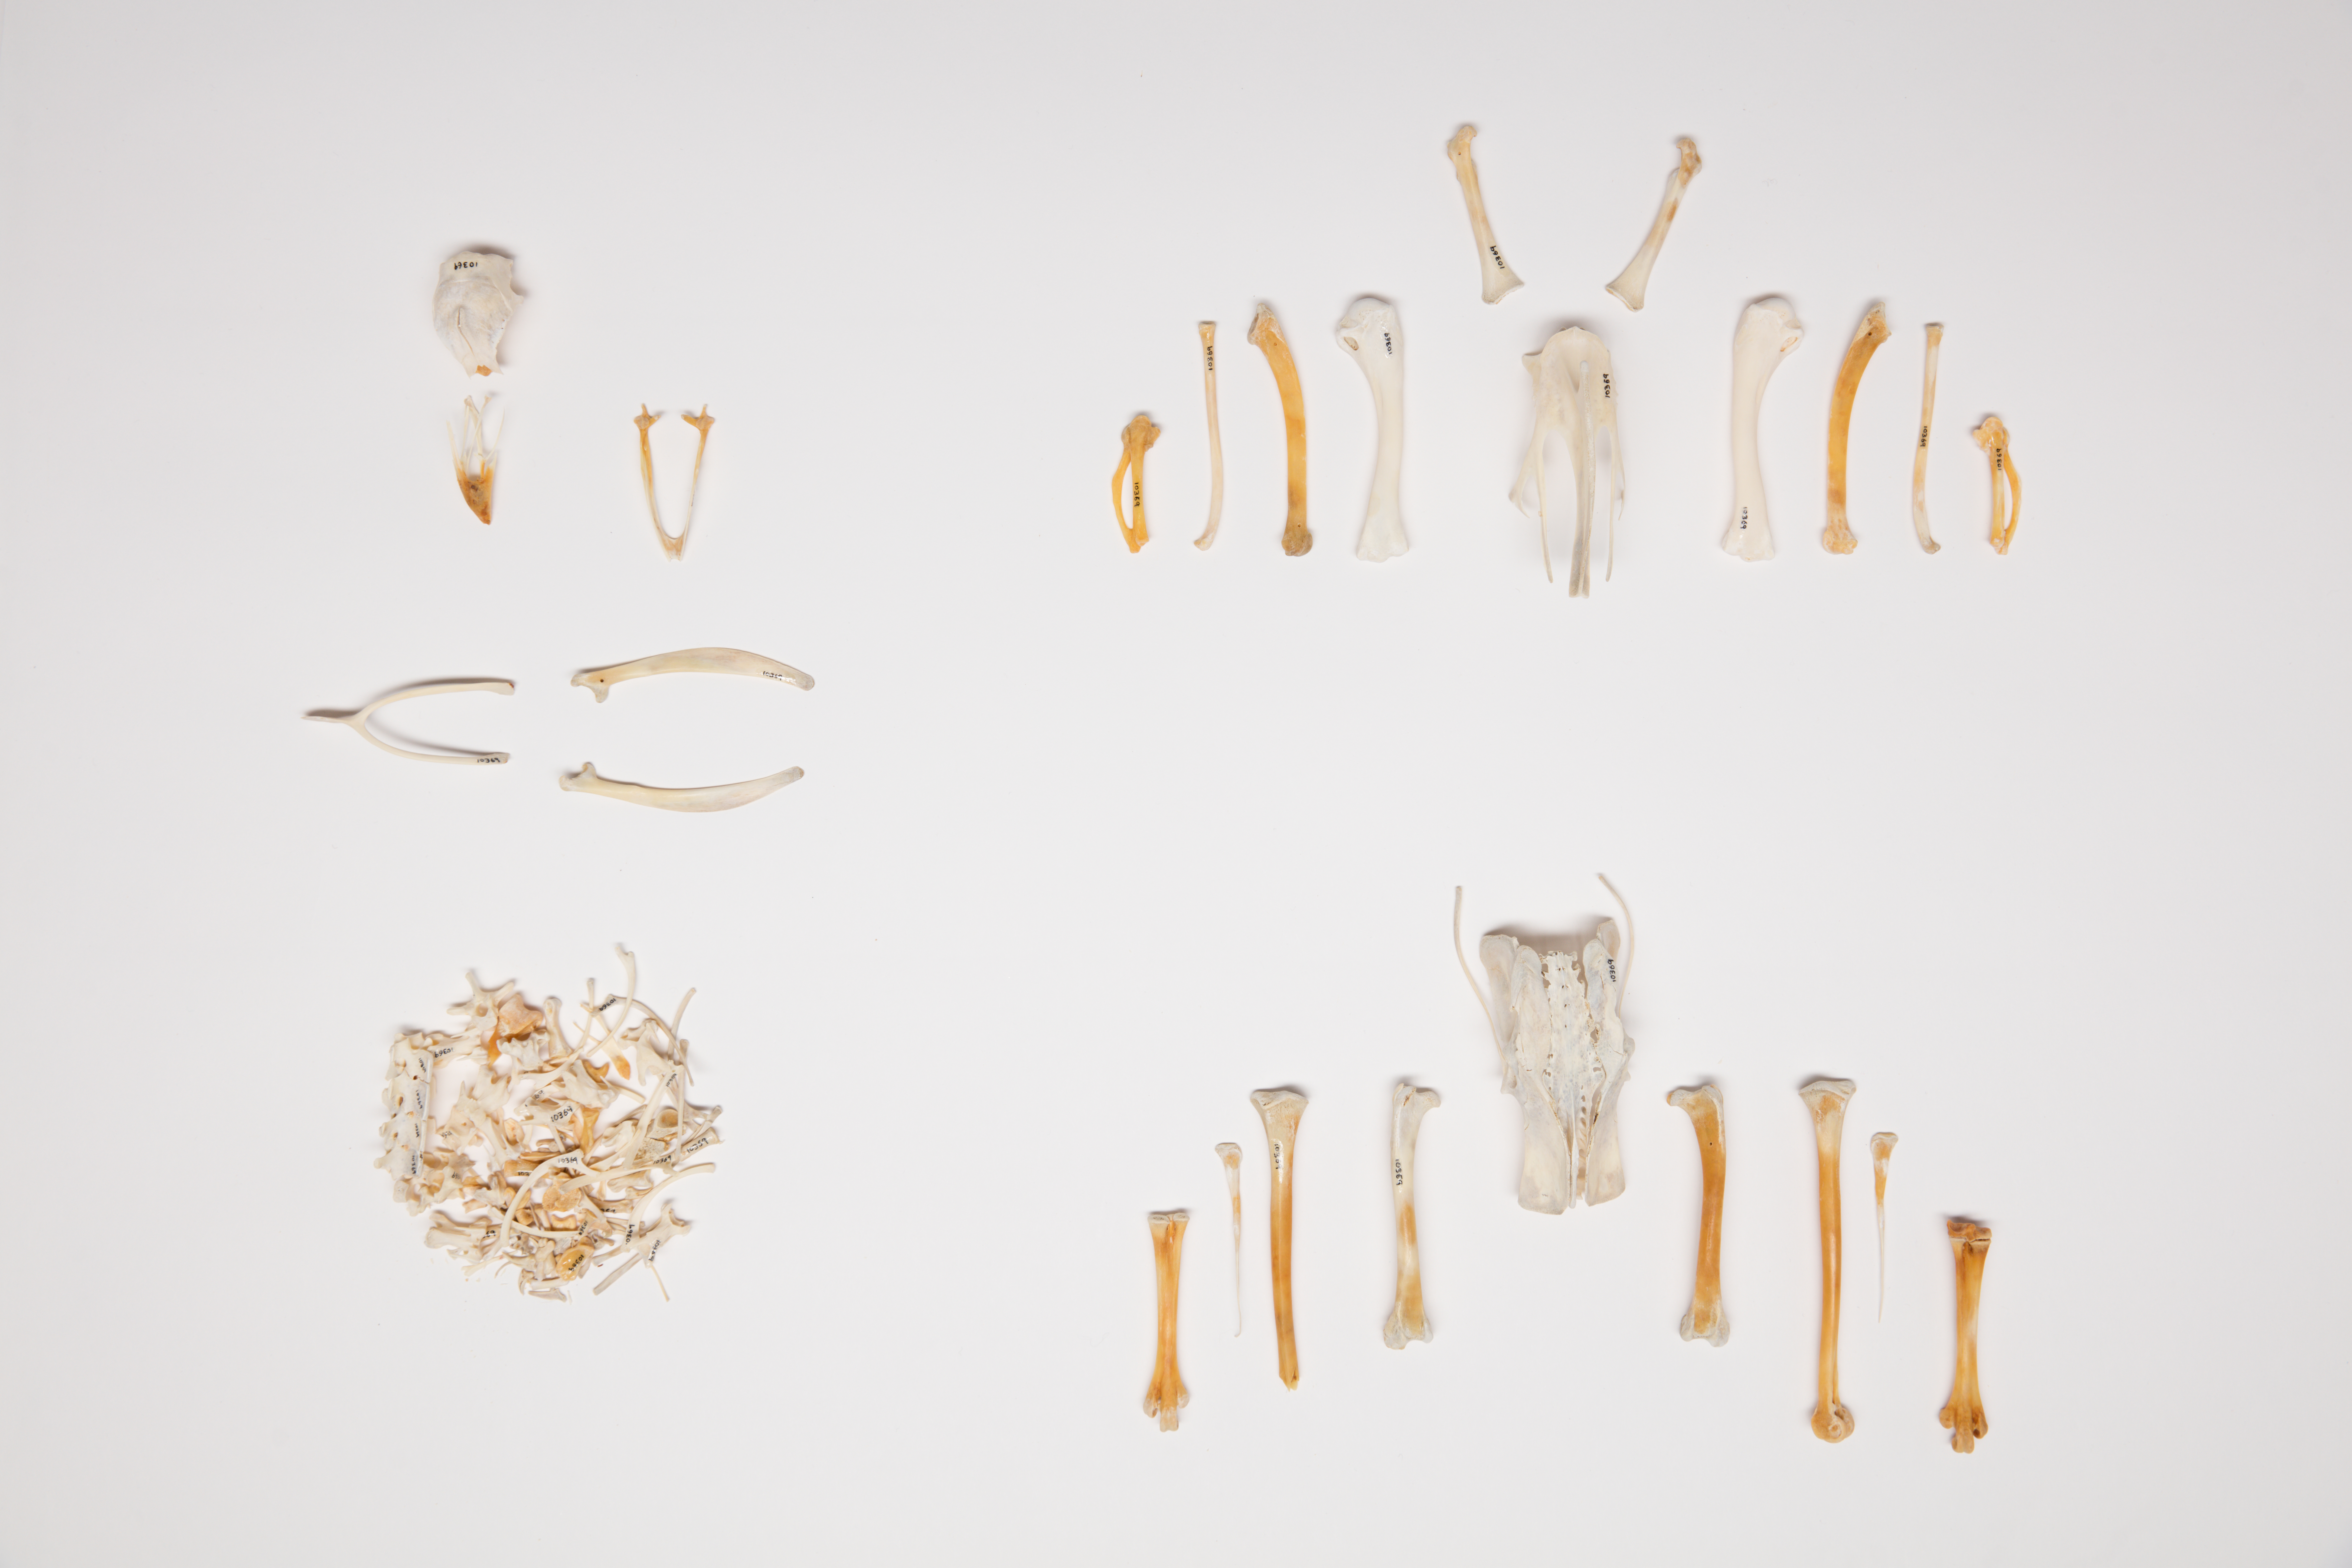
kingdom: Animalia
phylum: Chordata
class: Aves
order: Galliformes
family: Numididae
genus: Numida
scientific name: Numida meleagris
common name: Helmeted guineafowl
